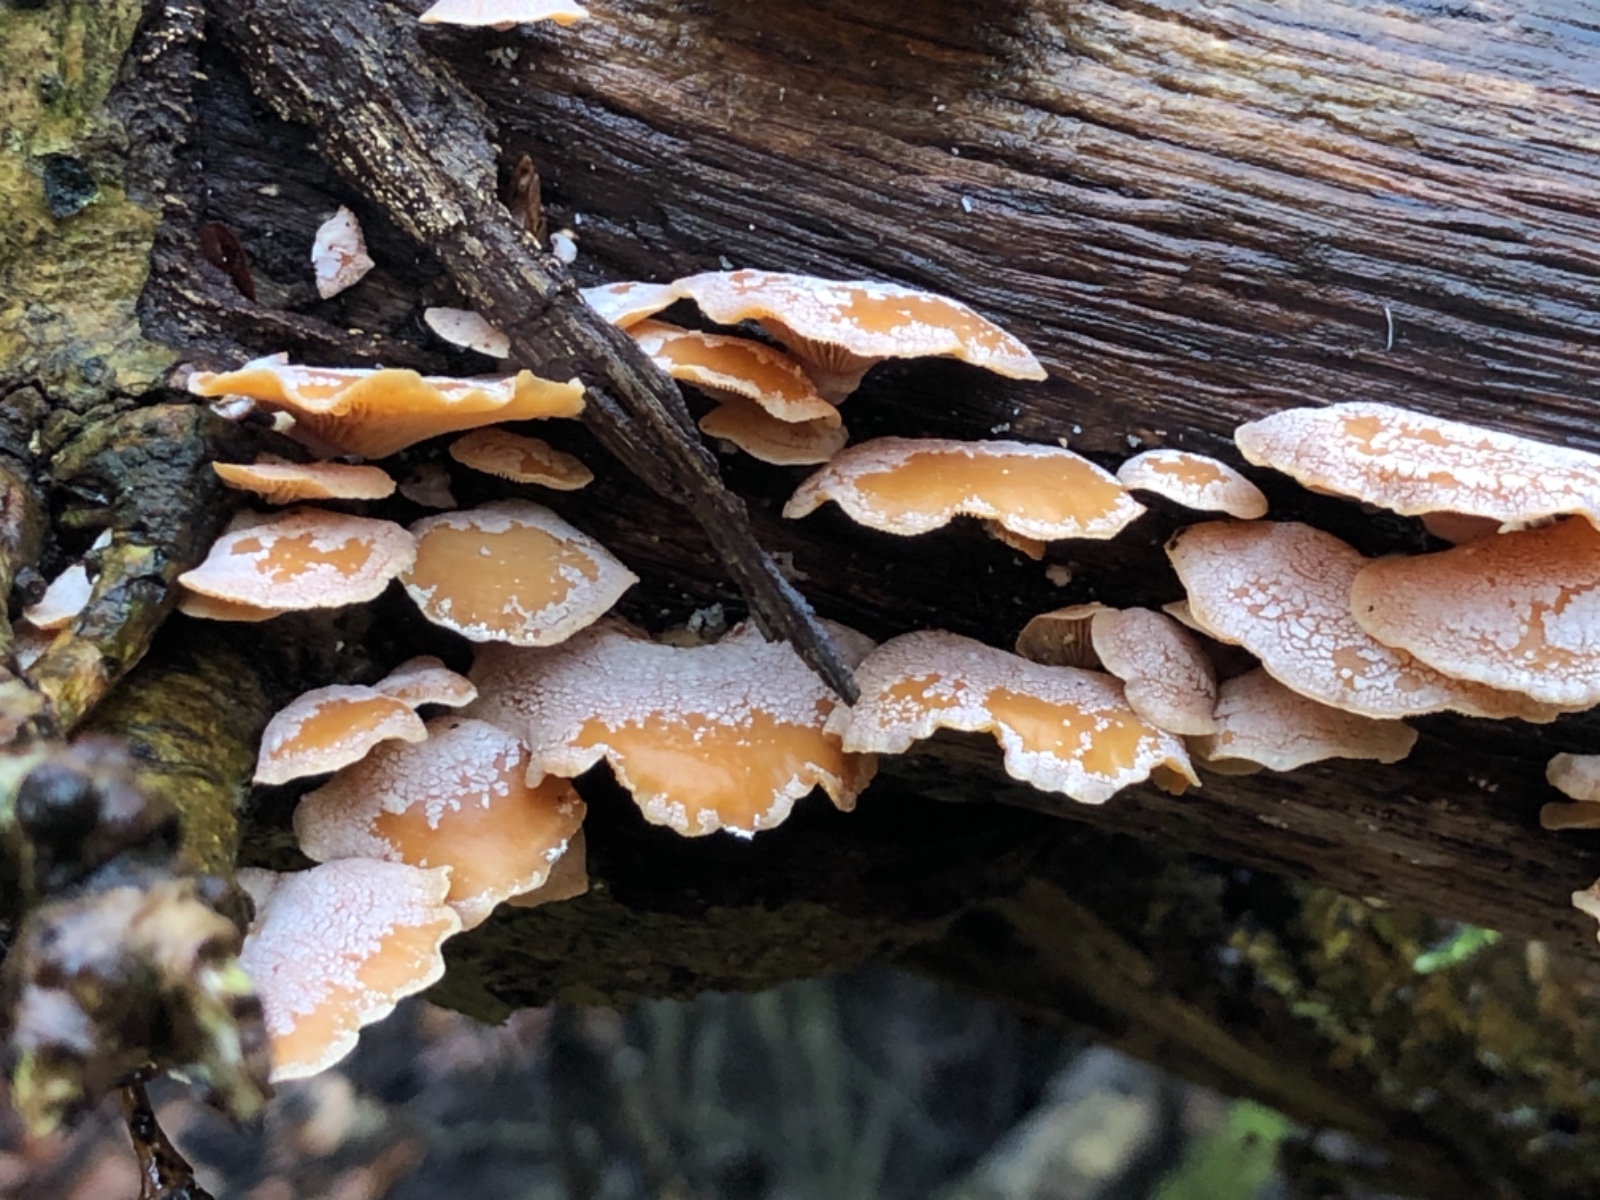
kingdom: Fungi
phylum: Basidiomycota
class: Agaricomycetes
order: Agaricales
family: Mycenaceae
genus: Panellus
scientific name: Panellus stipticus
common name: kliddet epaulethat
